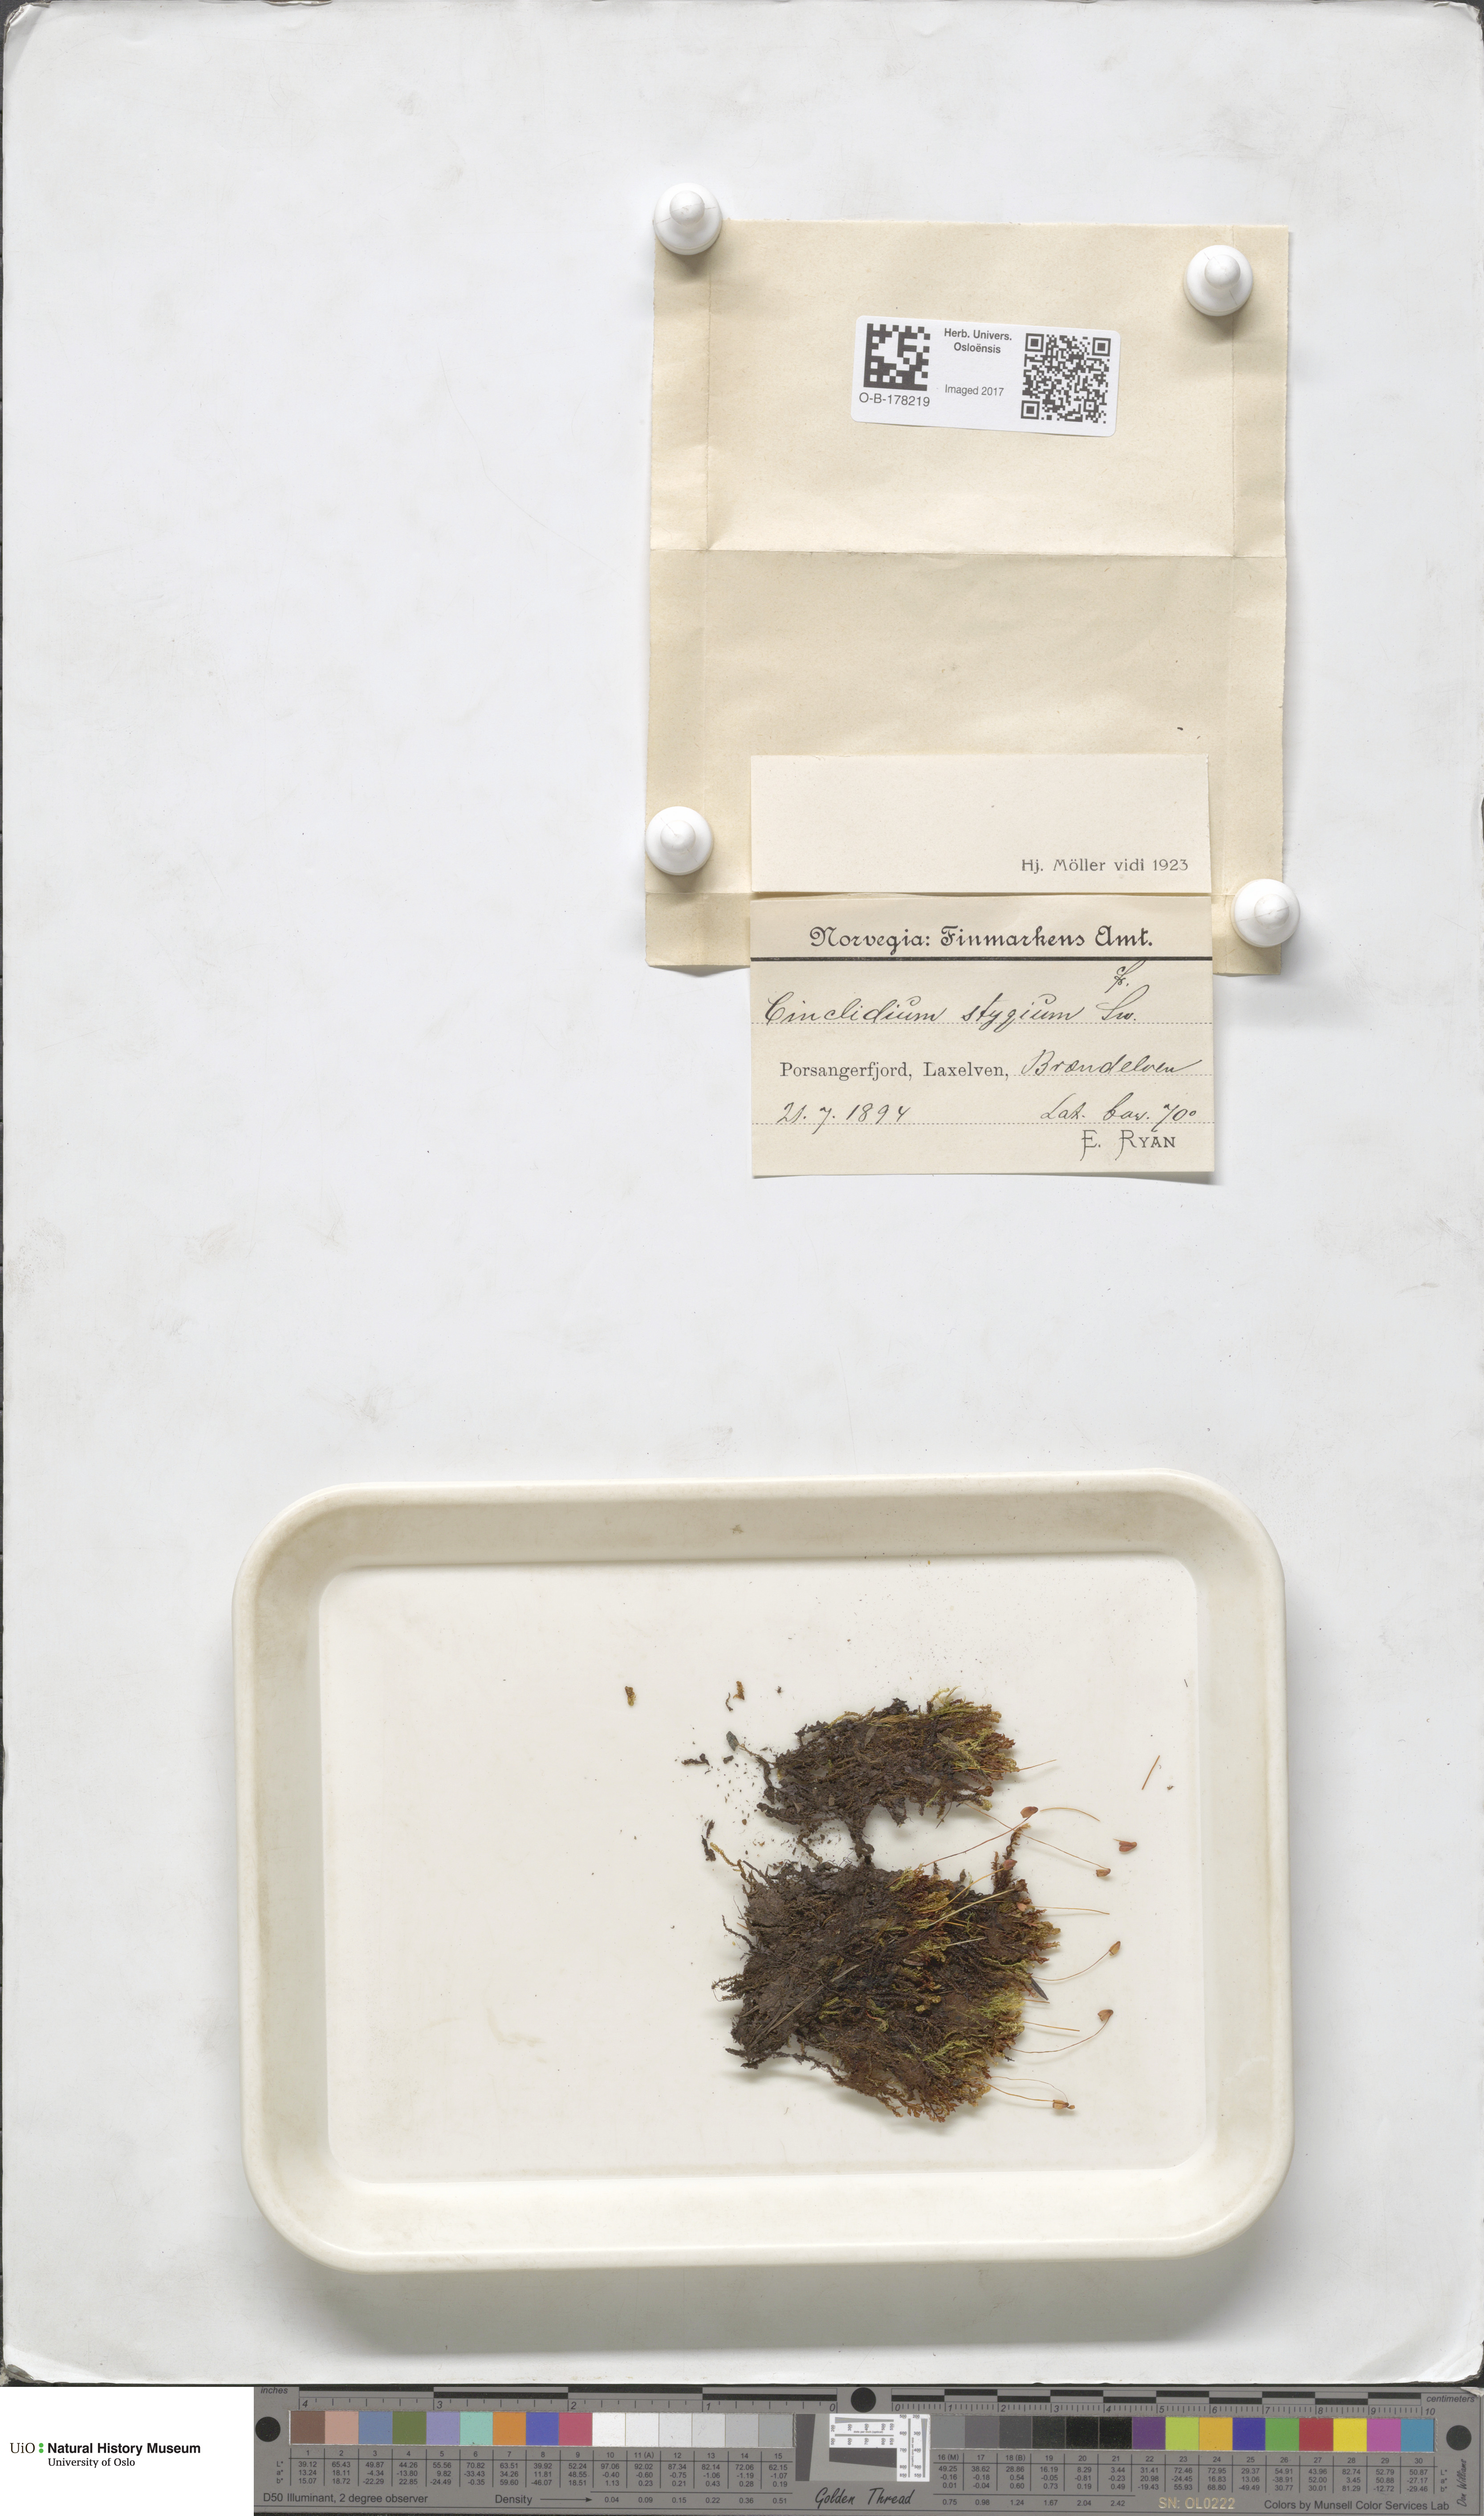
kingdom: Plantae
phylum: Bryophyta
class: Bryopsida
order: Bryales
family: Mniaceae
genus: Cinclidium
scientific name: Cinclidium stygium
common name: Sooty cupola moss
